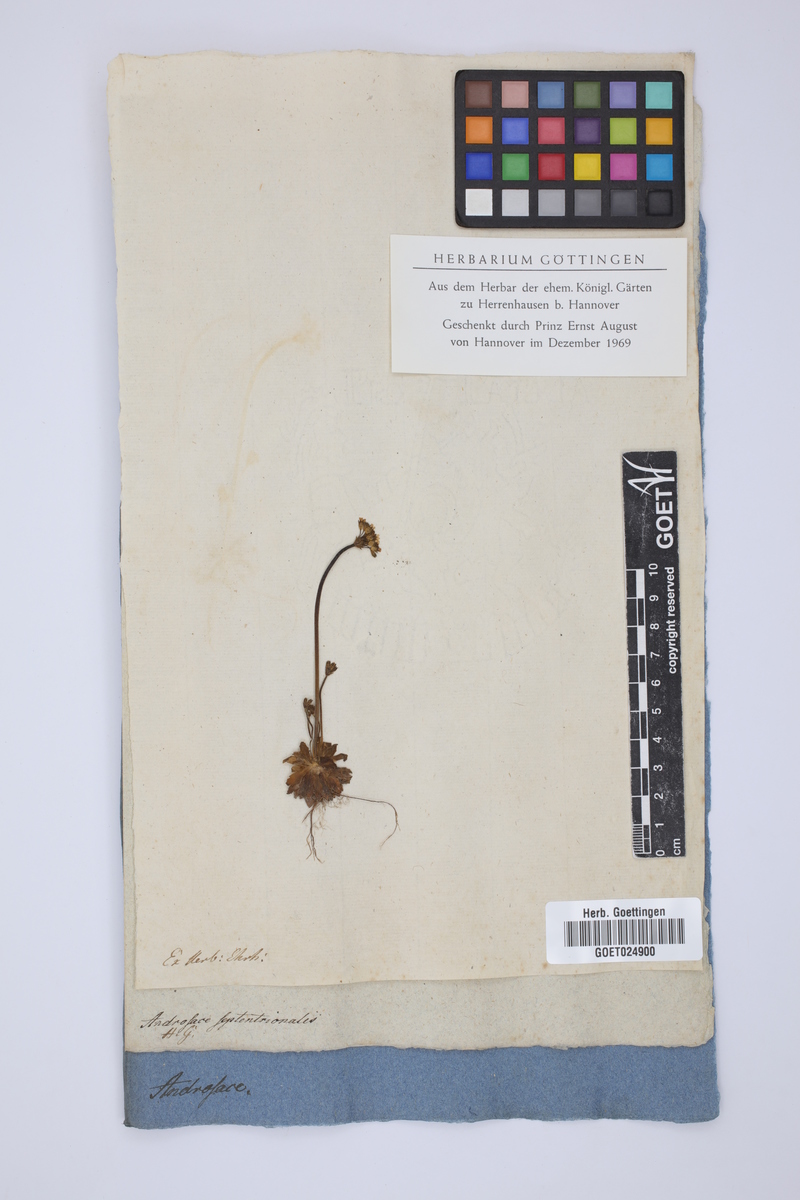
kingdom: Plantae
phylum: Tracheophyta
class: Magnoliopsida
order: Ericales
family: Primulaceae
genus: Androsace
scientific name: Androsace septentrionalis
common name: Hairy northern fairy-candelabra
